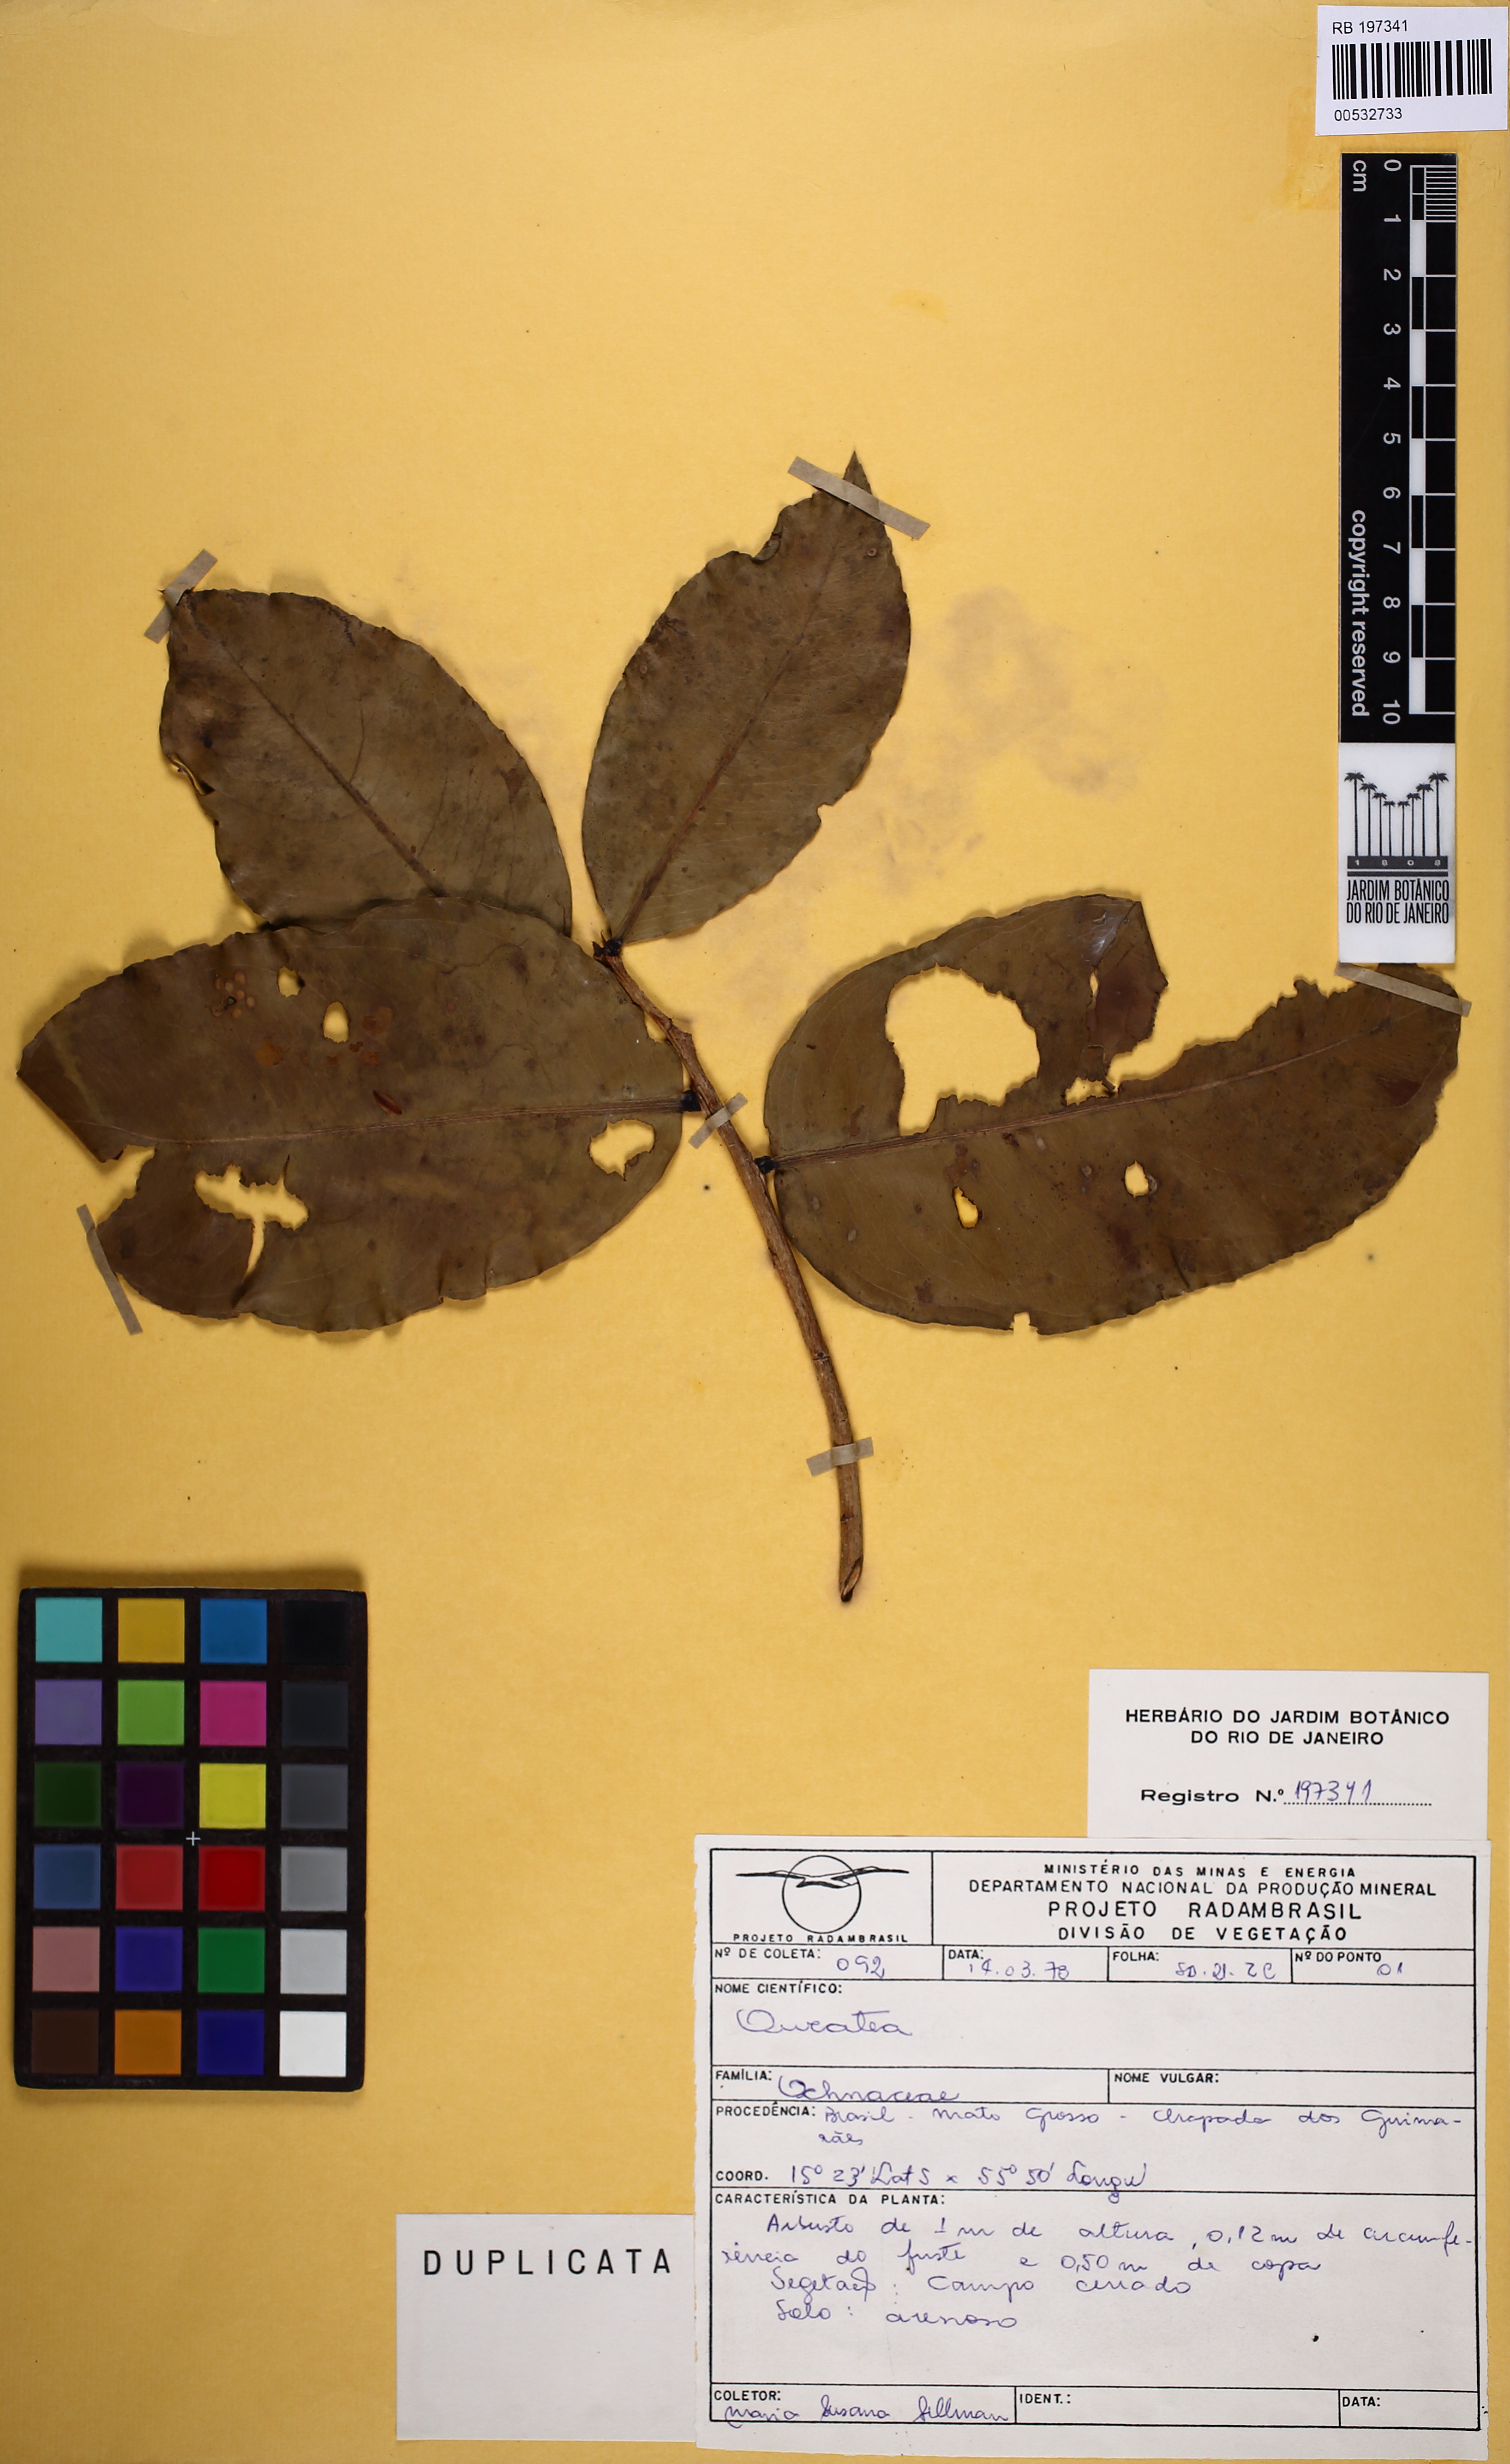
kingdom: Plantae
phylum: Tracheophyta
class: Magnoliopsida
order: Malpighiales
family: Ochnaceae
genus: Ouratea
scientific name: Ouratea
